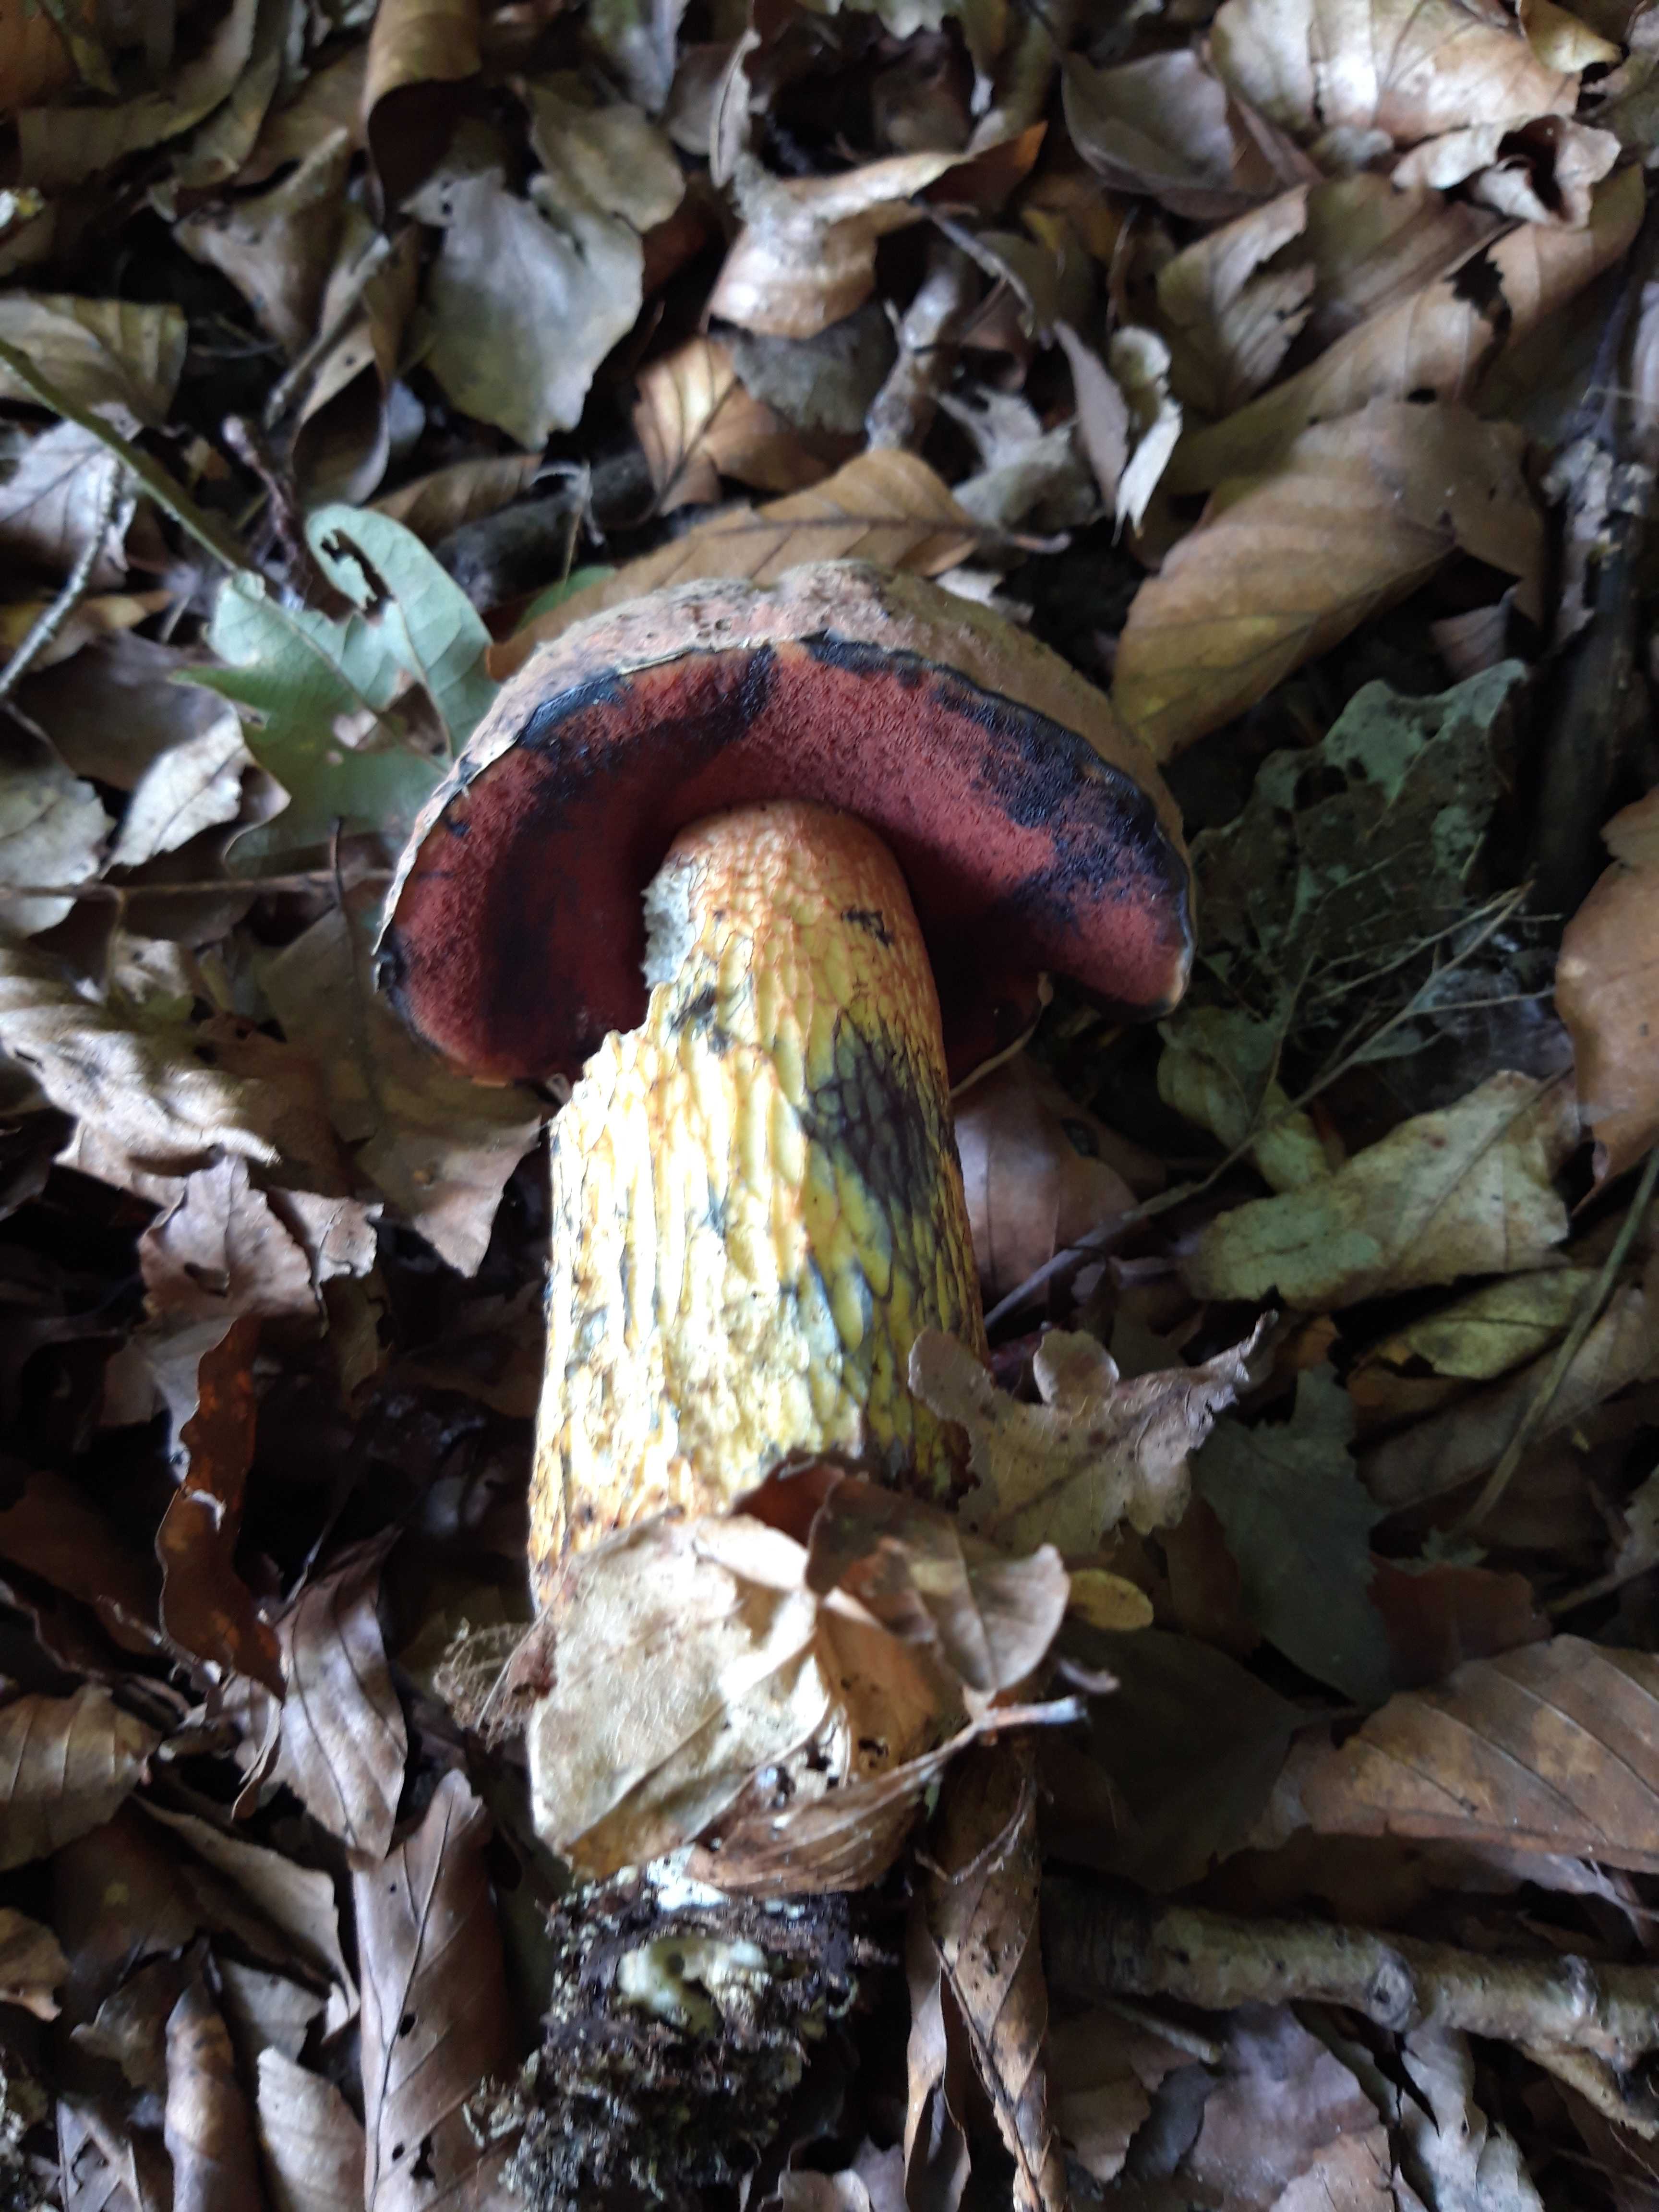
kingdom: Fungi
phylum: Basidiomycota
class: Agaricomycetes
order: Boletales
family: Boletaceae
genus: Suillellus
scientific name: Suillellus luridus
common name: netstokket indigorørhat
